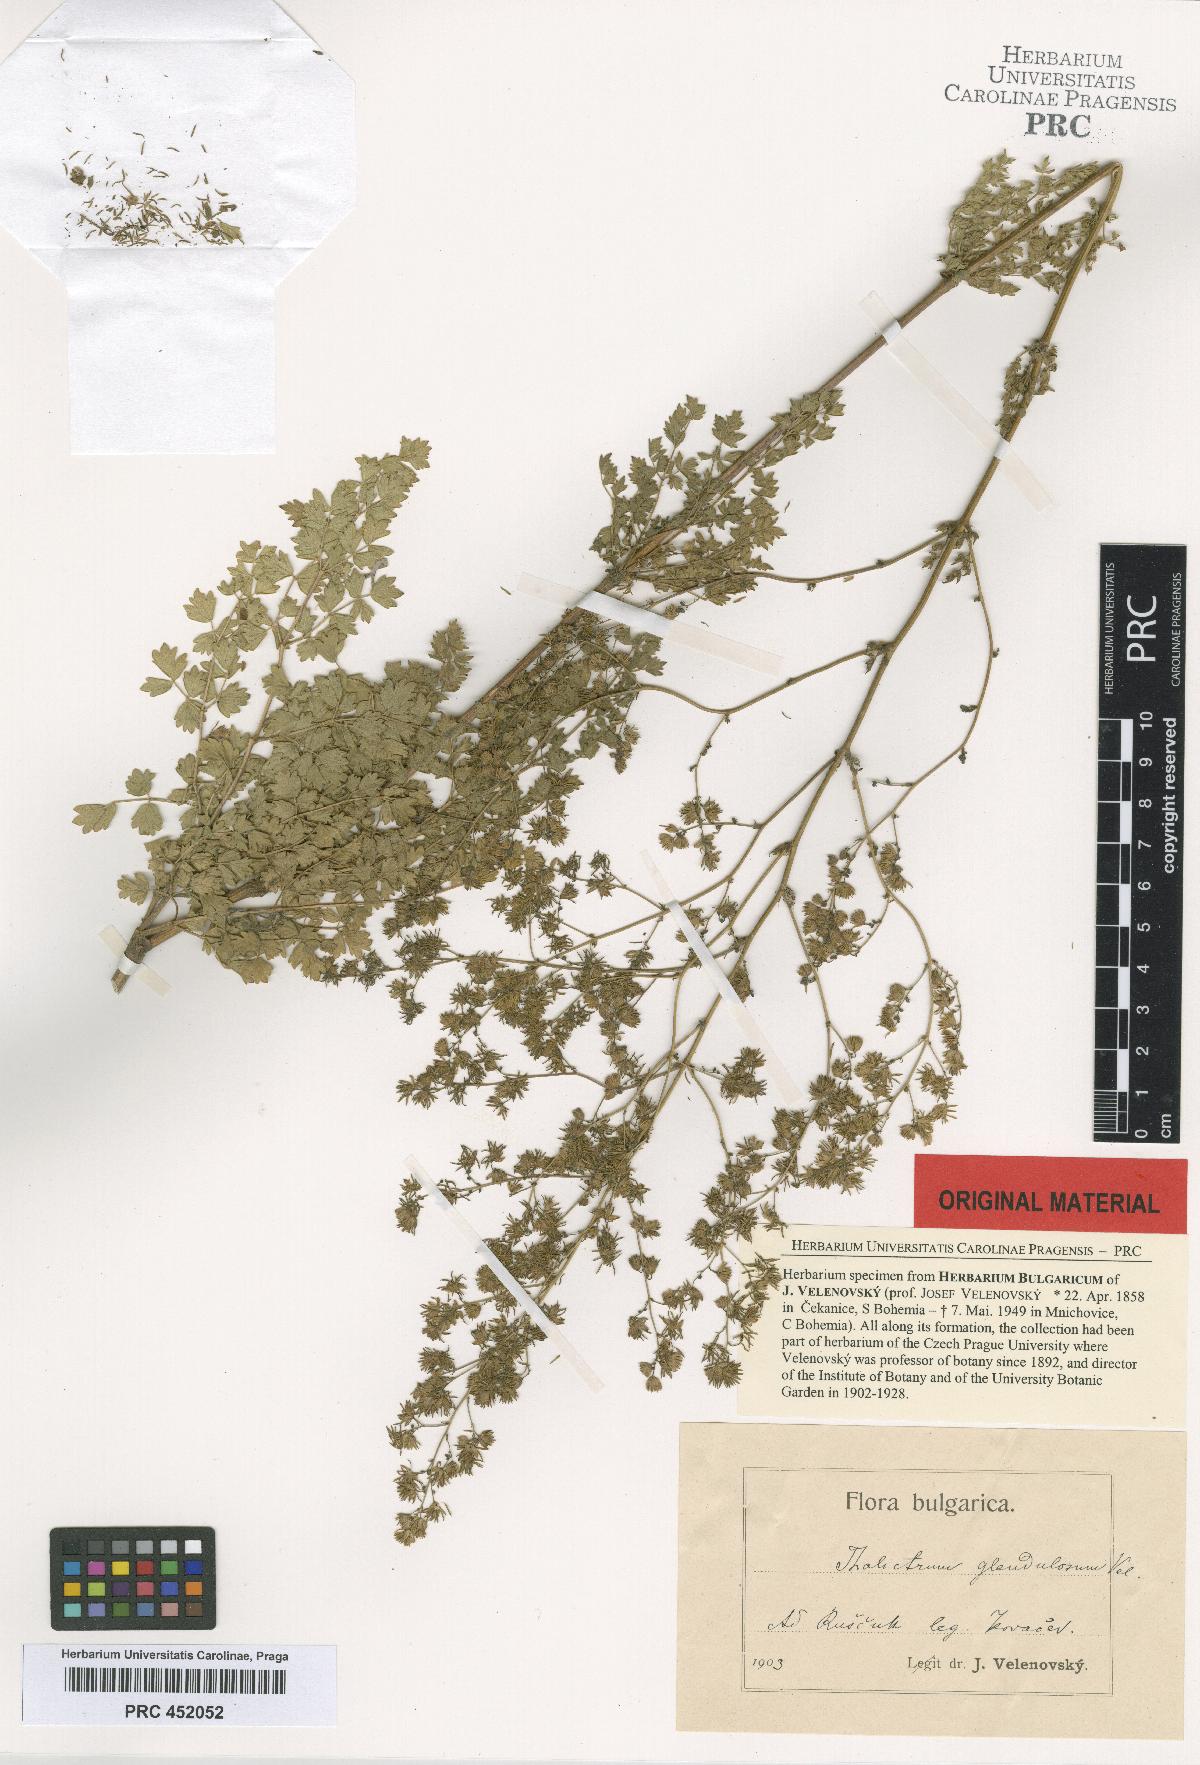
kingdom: Plantae
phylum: Tracheophyta
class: Magnoliopsida
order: Ranunculales
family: Ranunculaceae
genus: Thalictrum
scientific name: Thalictrum glandulosum
